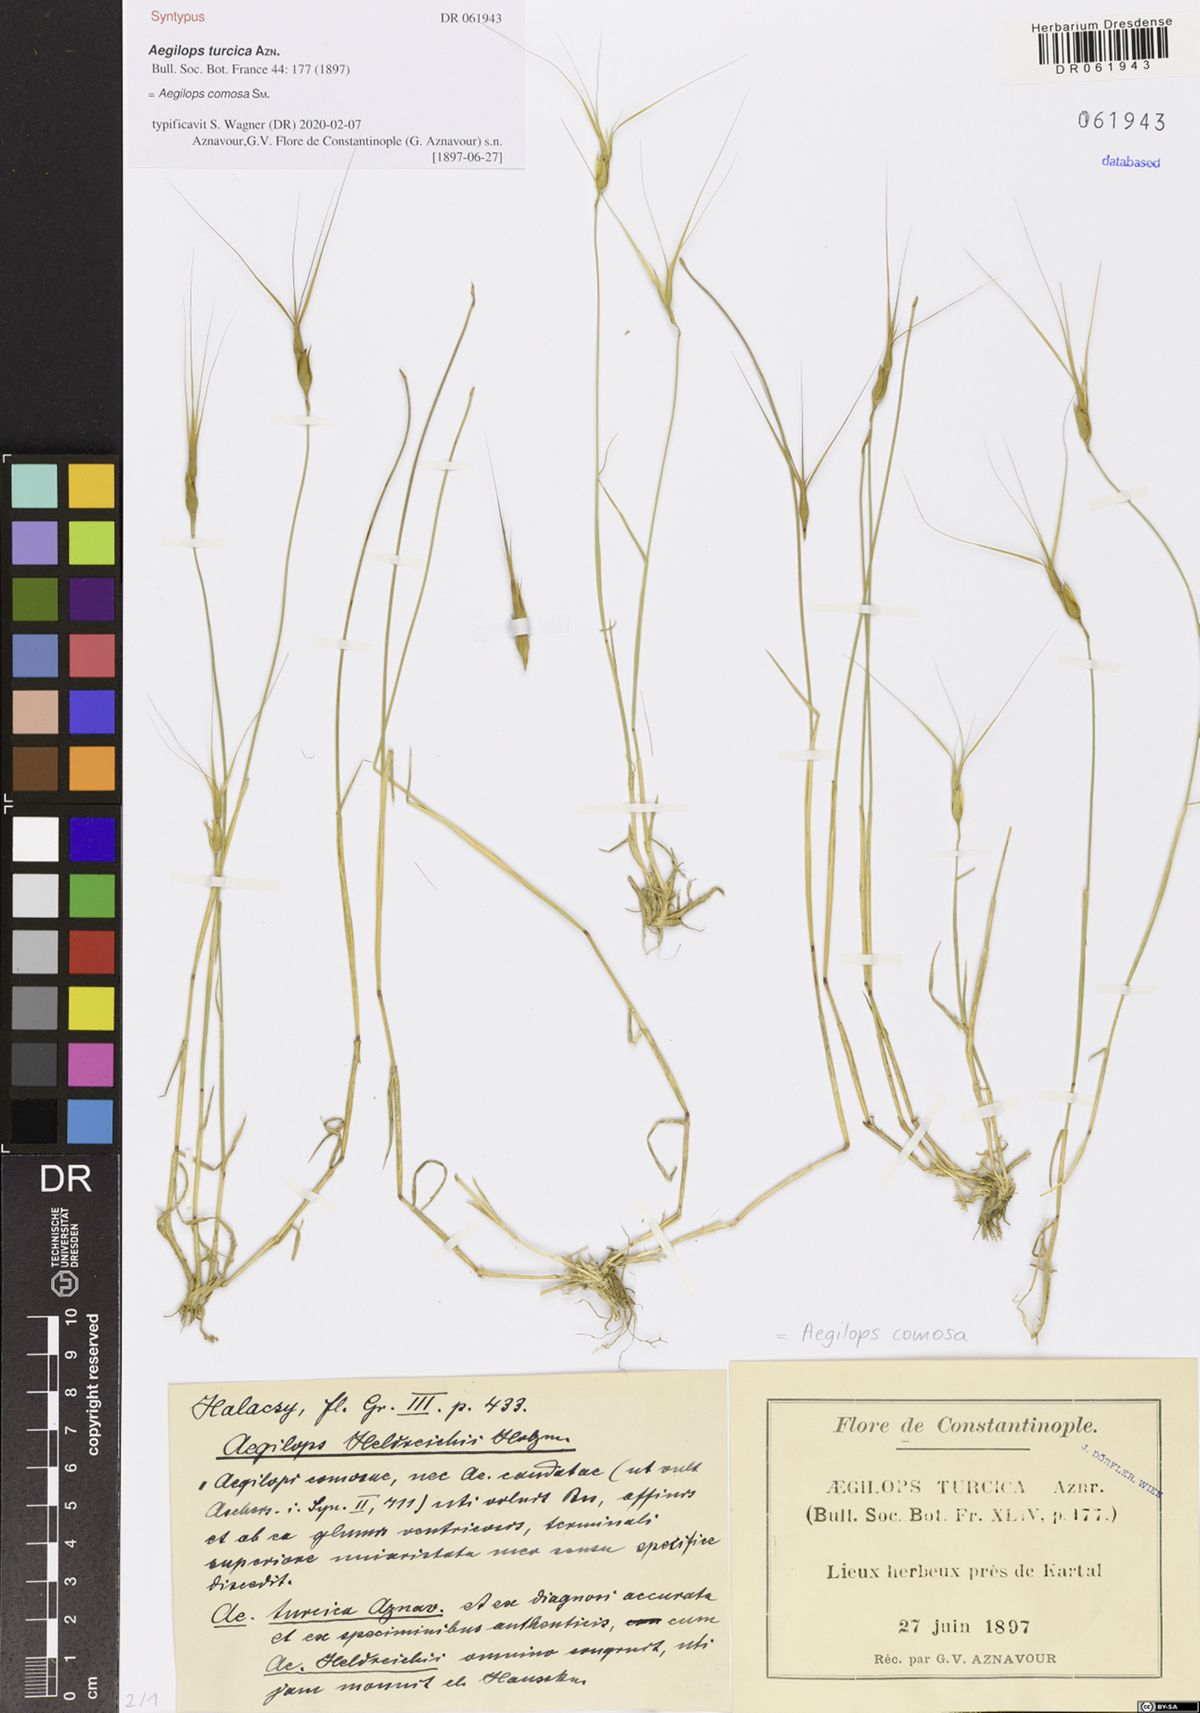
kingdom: Plantae
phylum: Tracheophyta
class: Liliopsida
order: Poales
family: Poaceae
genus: Aegilops
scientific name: Aegilops comosa
